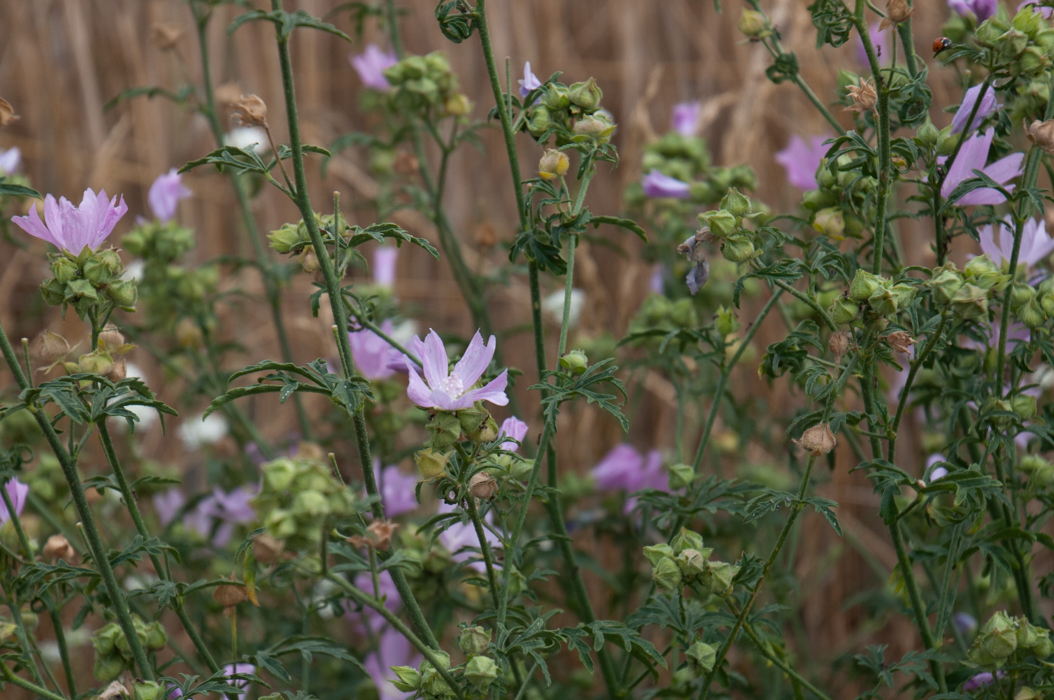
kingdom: Plantae
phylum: Tracheophyta
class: Magnoliopsida
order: Malvales
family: Malvaceae
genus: Malva
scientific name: Malva alcea
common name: Greater musk-mallow
